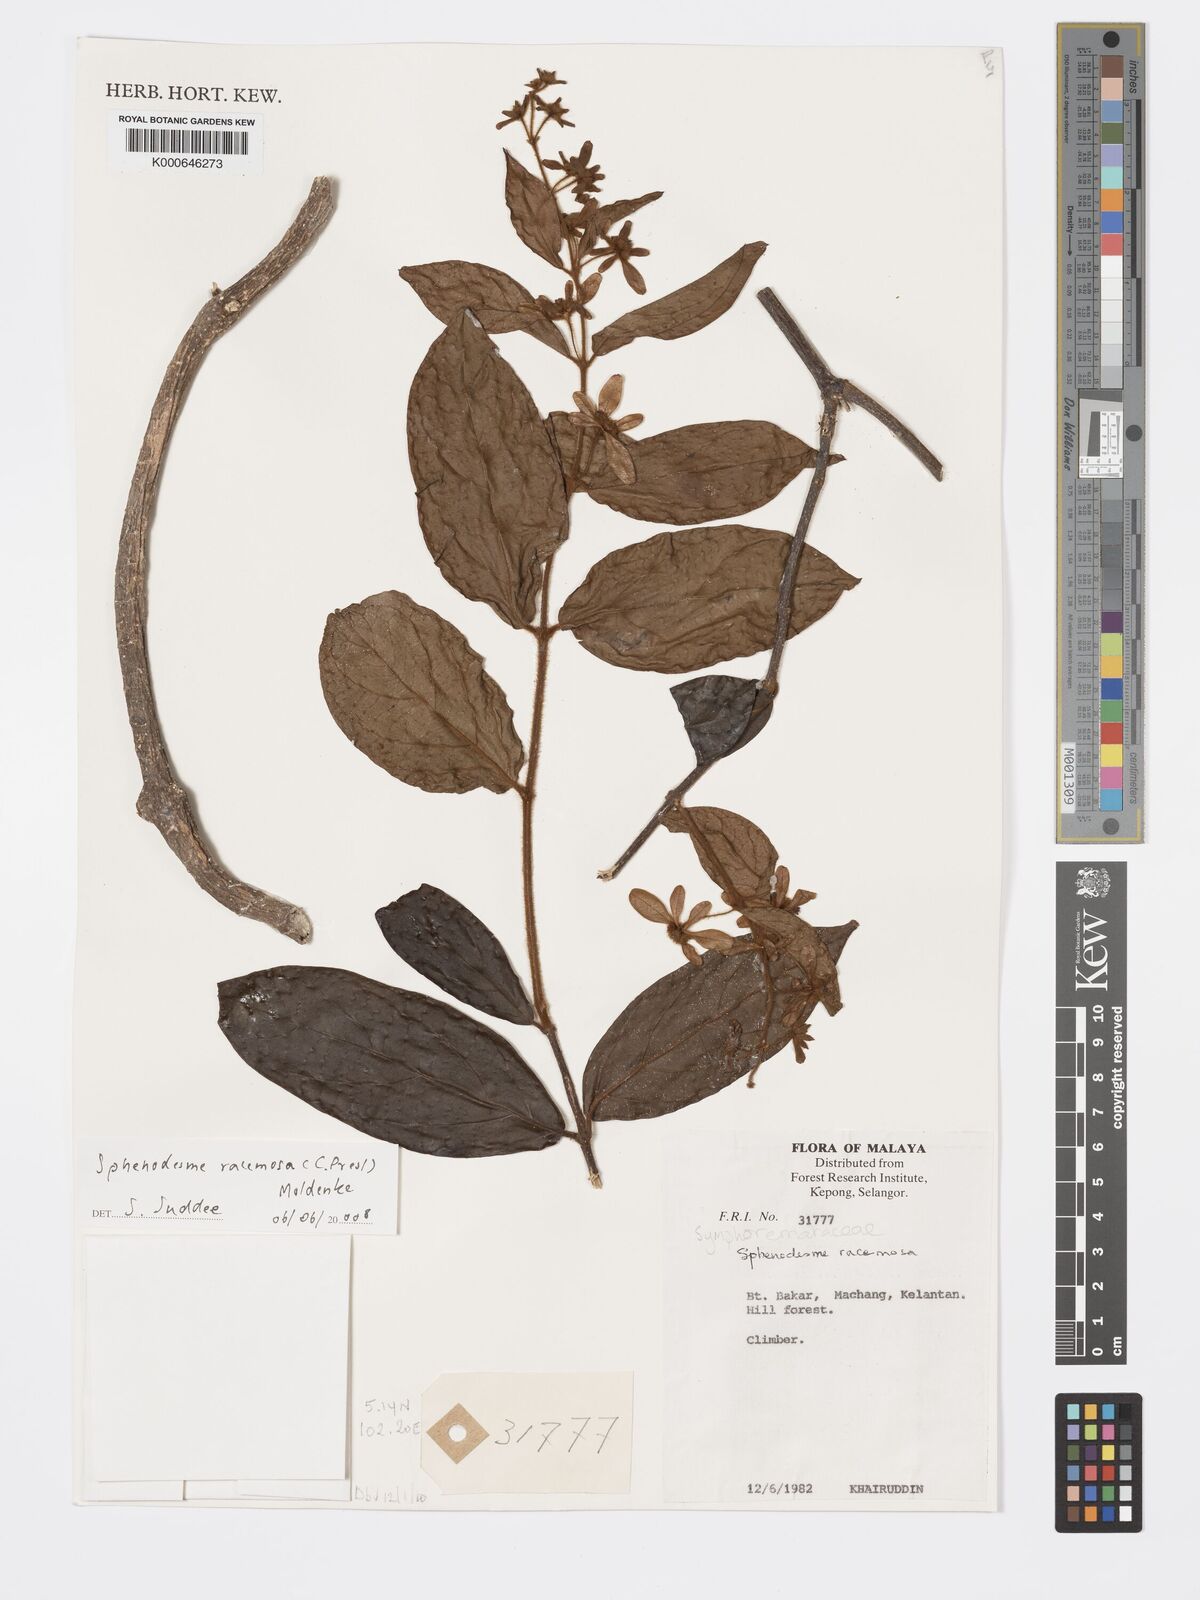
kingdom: Plantae
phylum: Tracheophyta
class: Magnoliopsida
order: Lamiales
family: Lamiaceae
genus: Sphenodesme
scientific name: Sphenodesme racemosa
